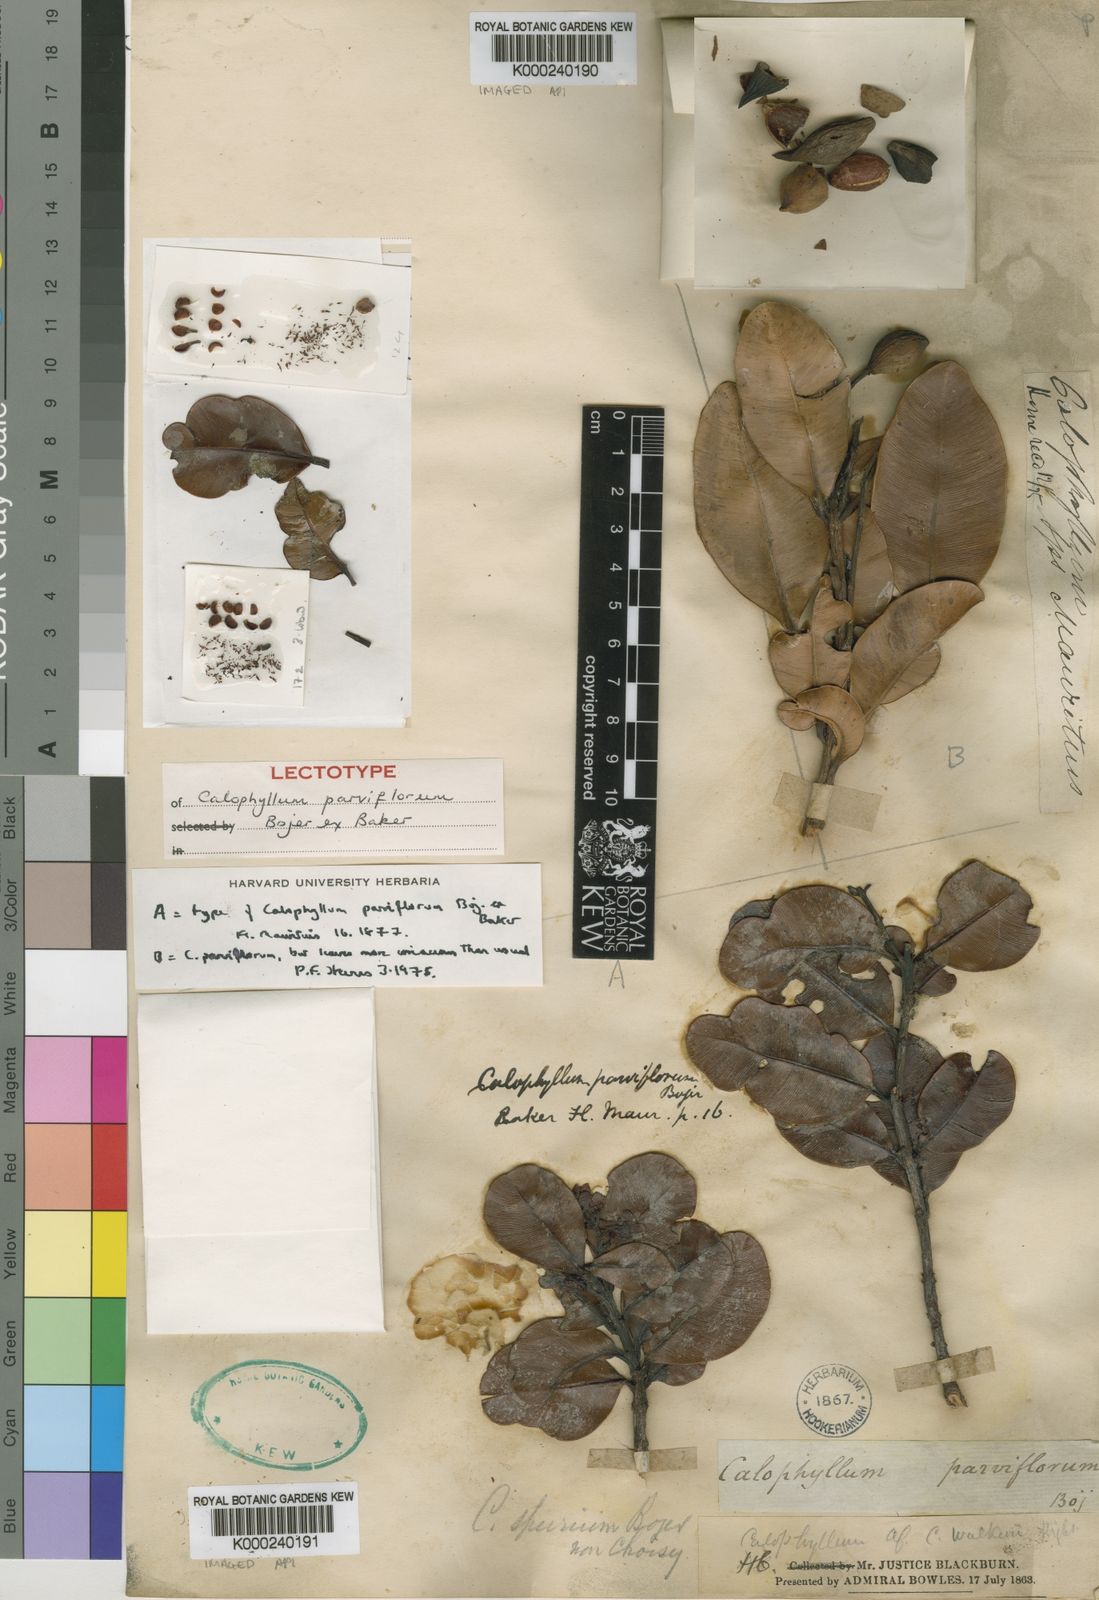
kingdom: Plantae
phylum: Tracheophyta
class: Magnoliopsida
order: Malpighiales
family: Calophyllaceae
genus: Calophyllum
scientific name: Calophyllum parviflorum
